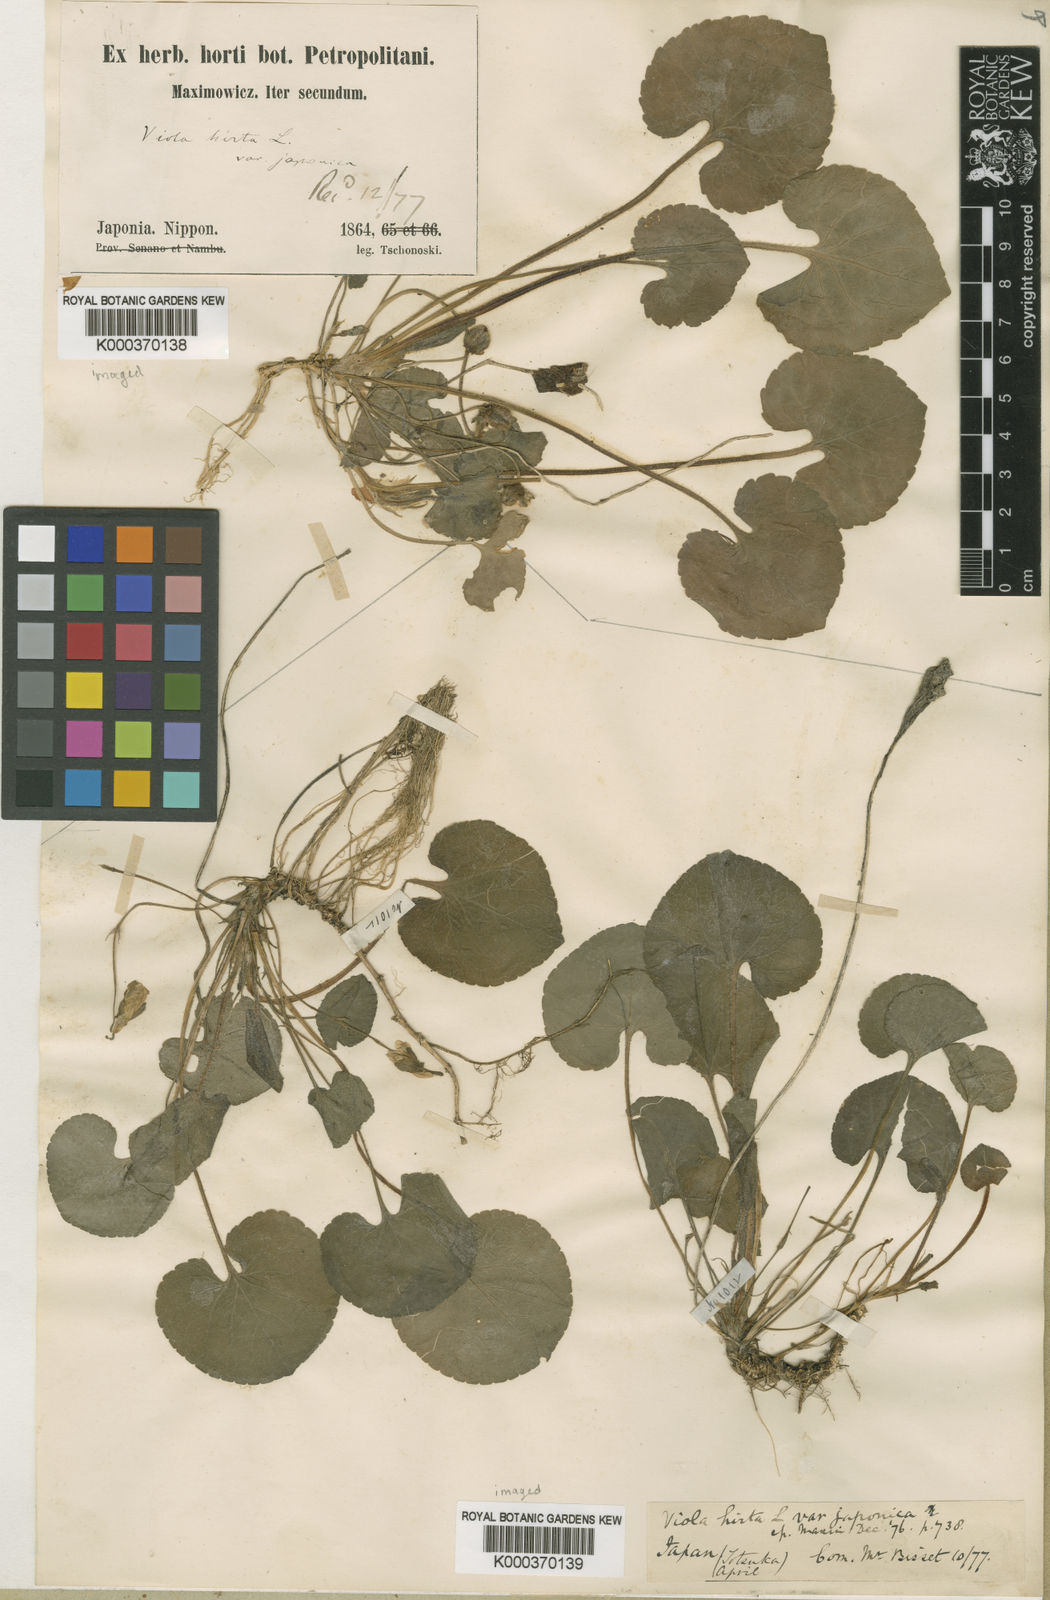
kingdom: Plantae
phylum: Tracheophyta
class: Magnoliopsida
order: Malpighiales
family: Violaceae
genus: Viola
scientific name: Viola hondoensis
